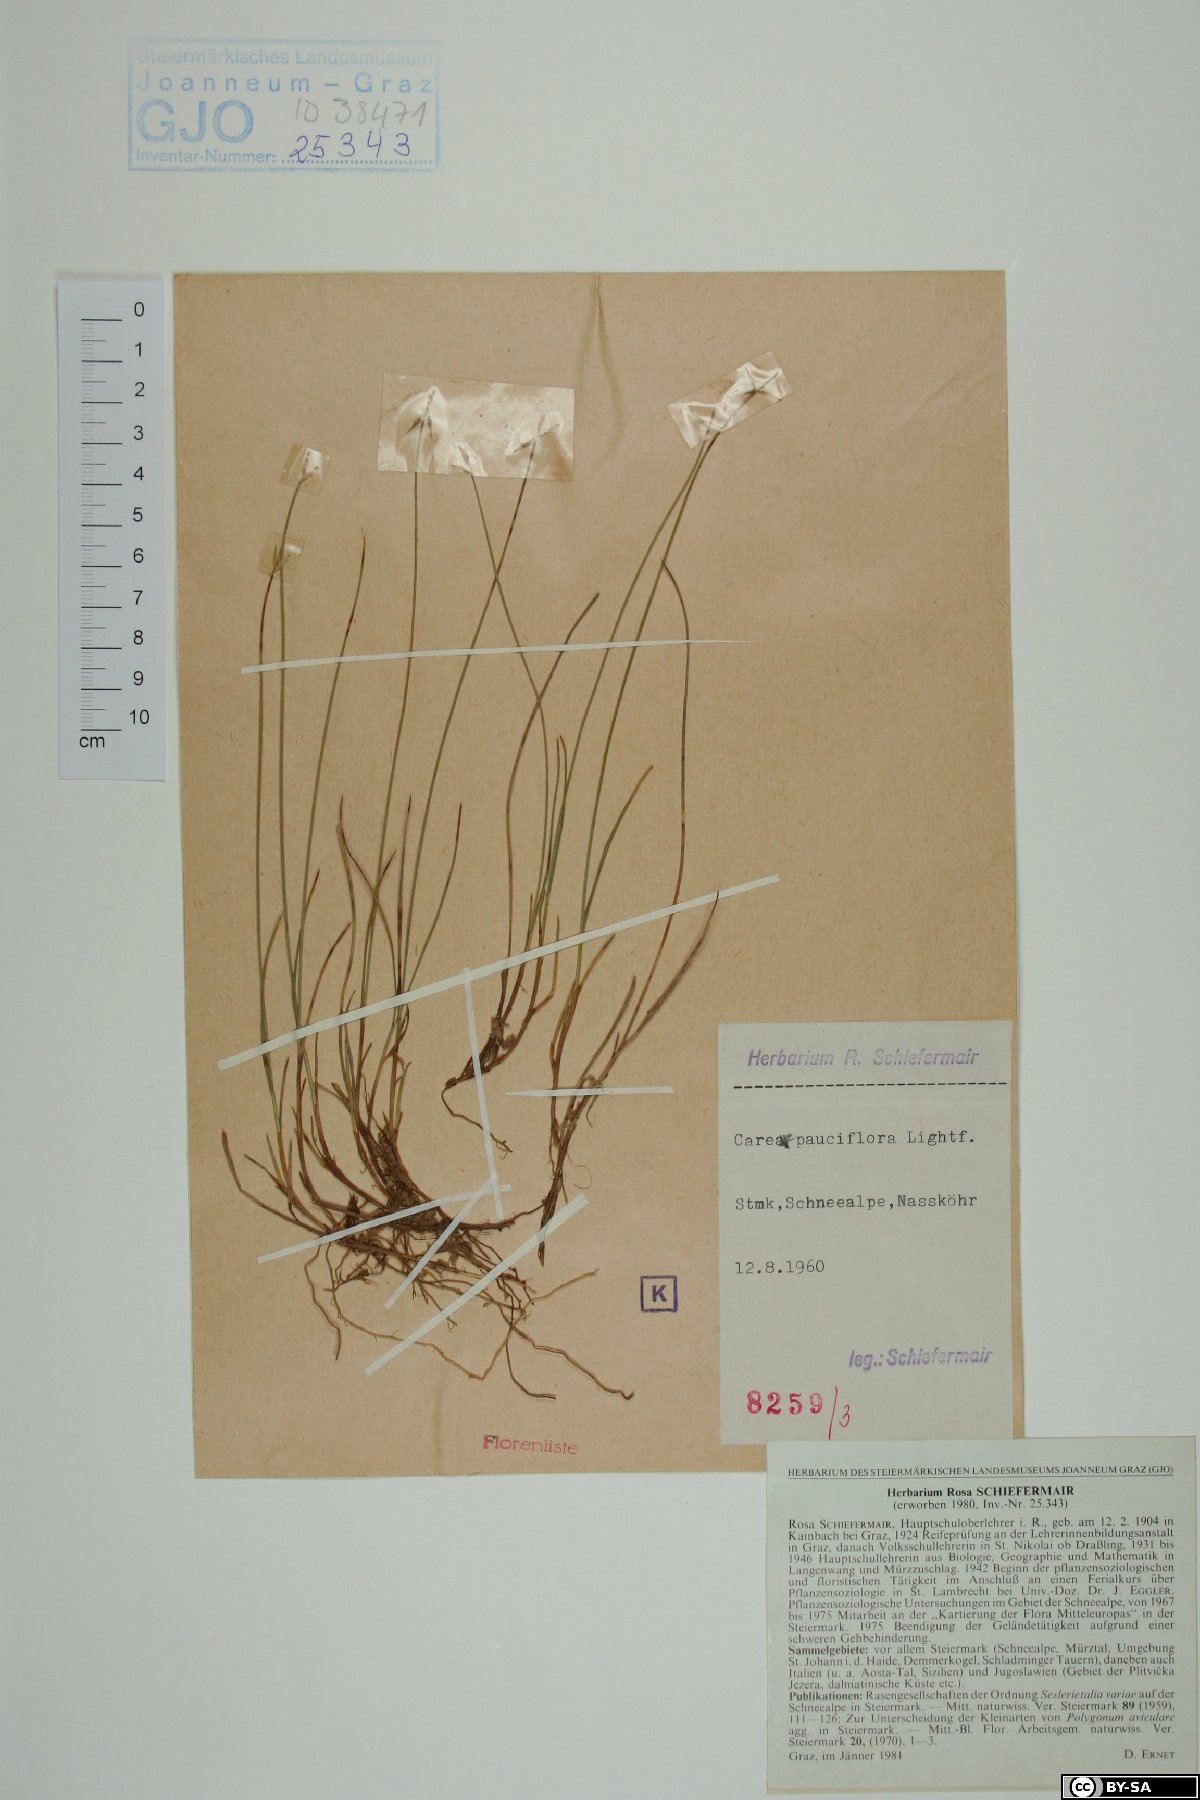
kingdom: Plantae
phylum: Tracheophyta
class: Liliopsida
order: Poales
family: Cyperaceae
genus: Carex
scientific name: Carex pauciflora
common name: Few-flowered sedge
